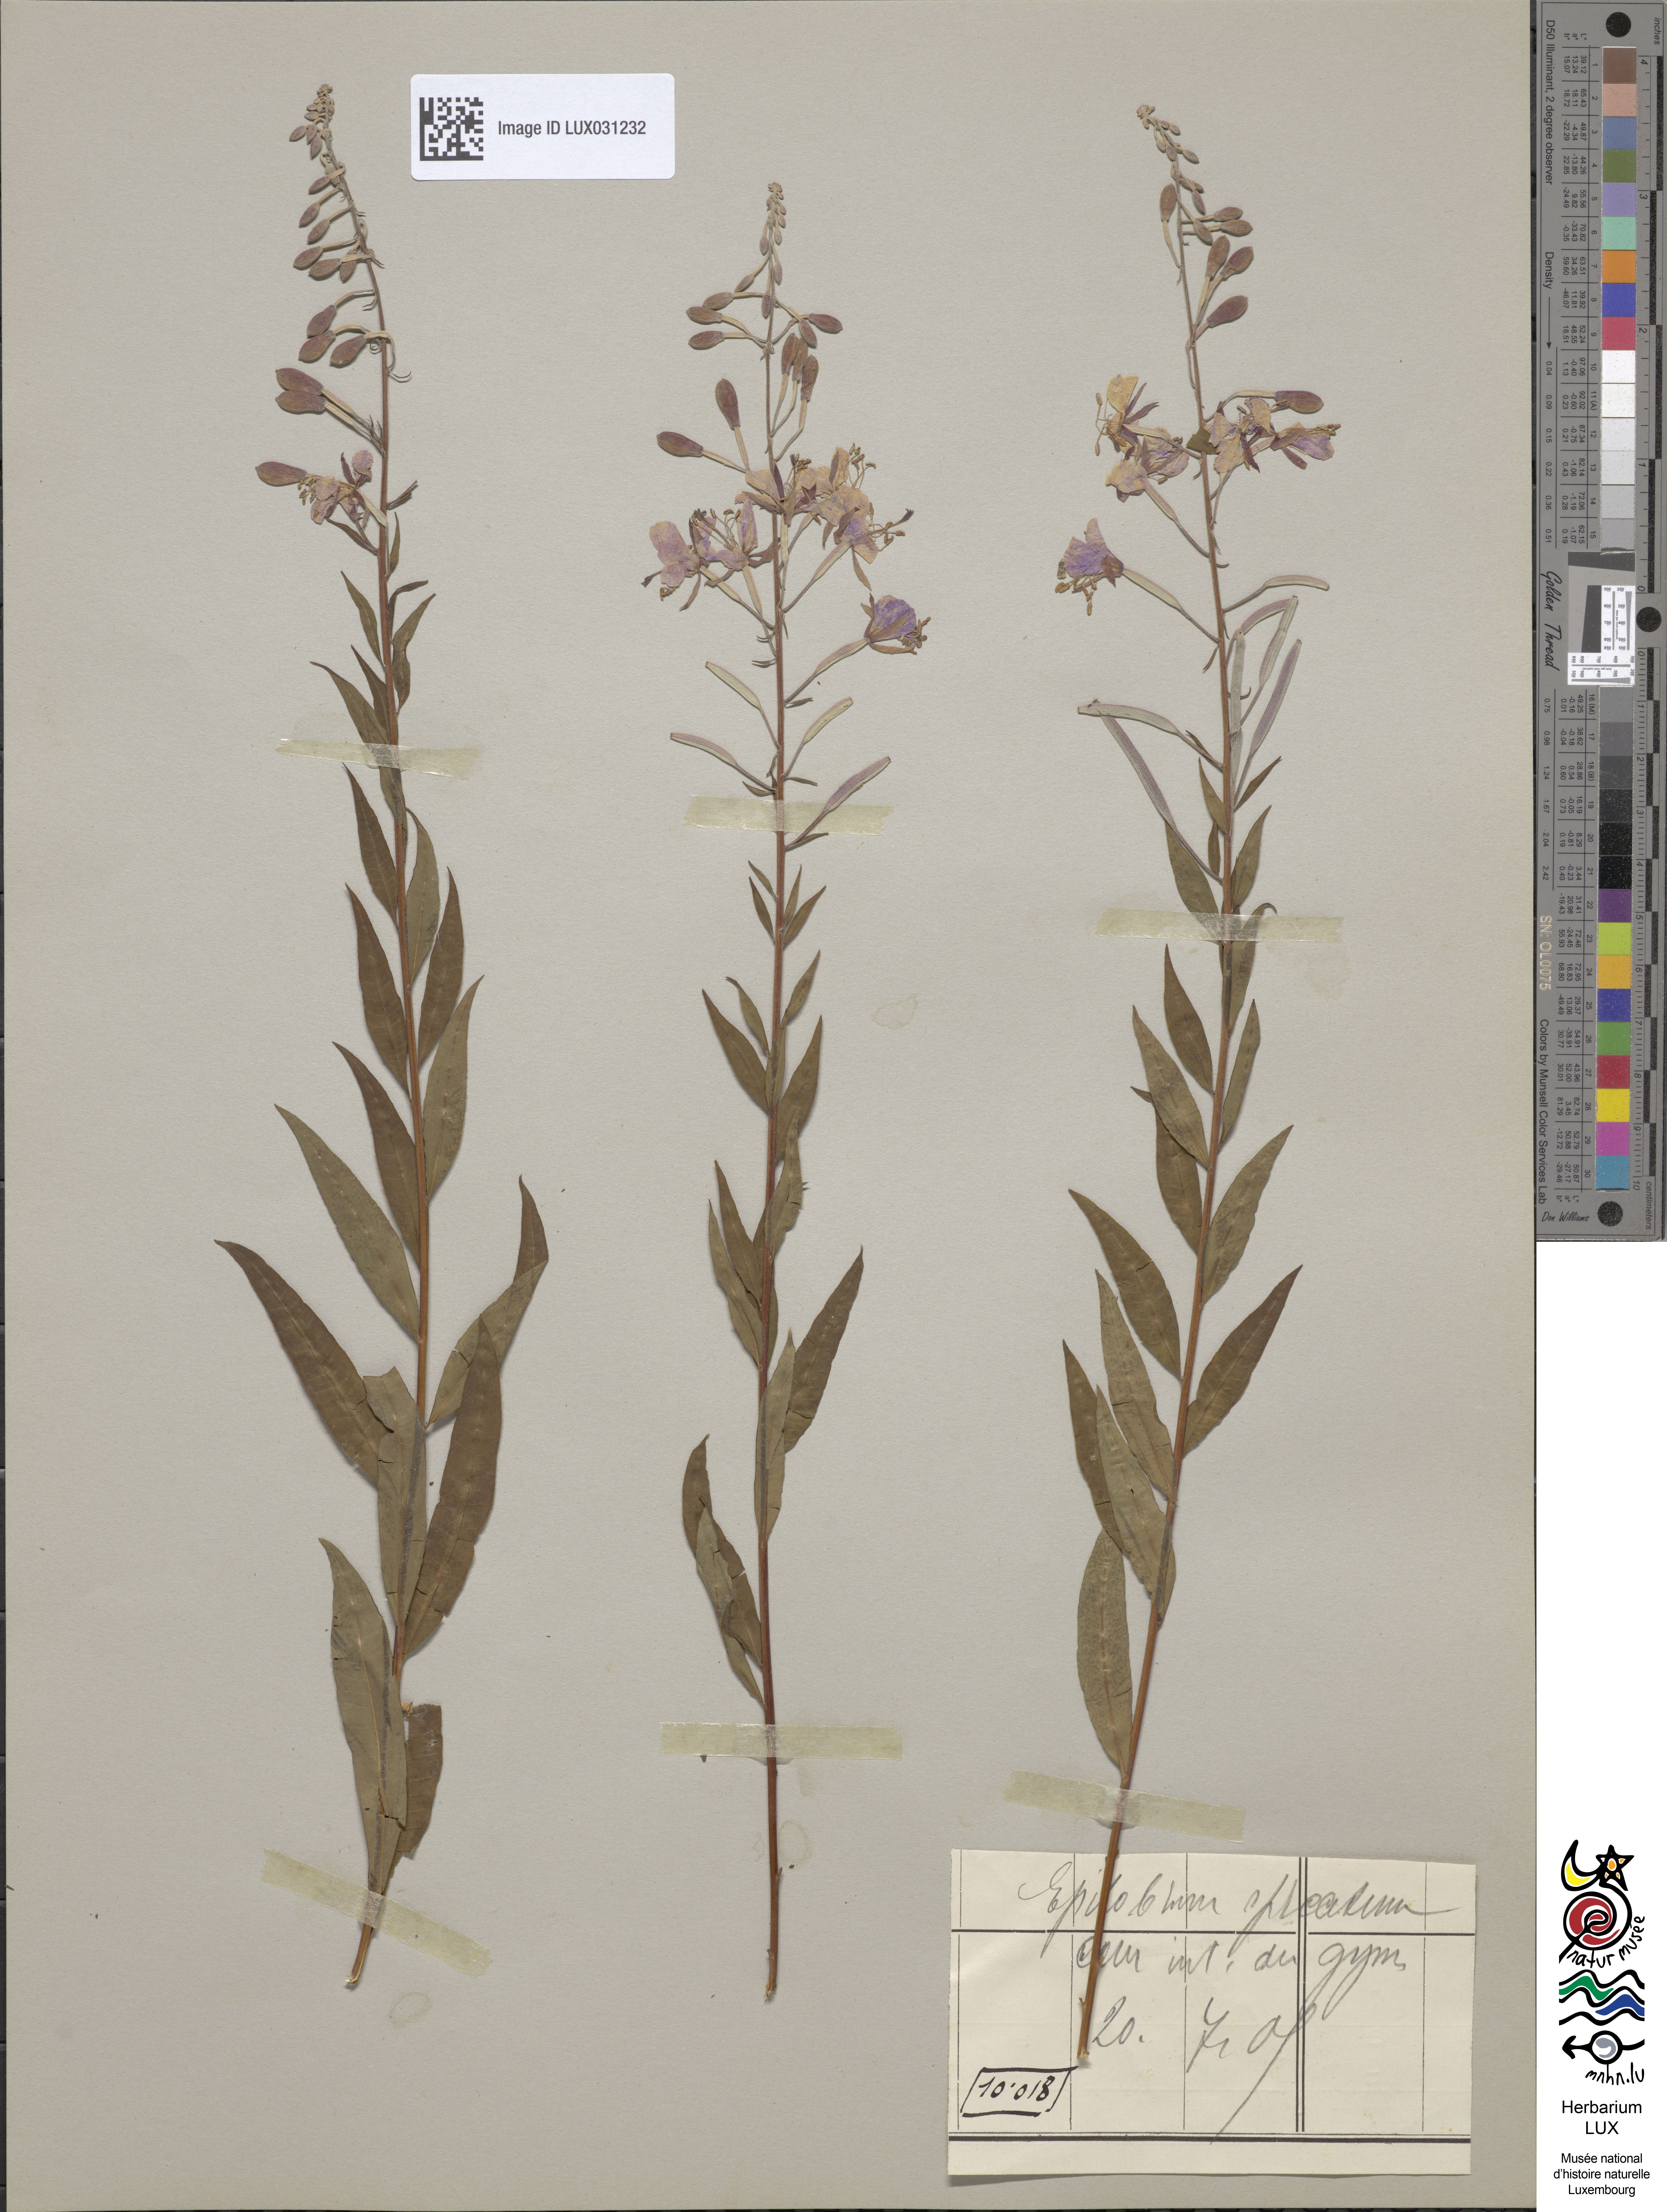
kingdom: Plantae
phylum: Tracheophyta
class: Magnoliopsida
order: Myrtales
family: Onagraceae
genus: Chamaenerion
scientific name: Chamaenerion angustifolium
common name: Fireweed
